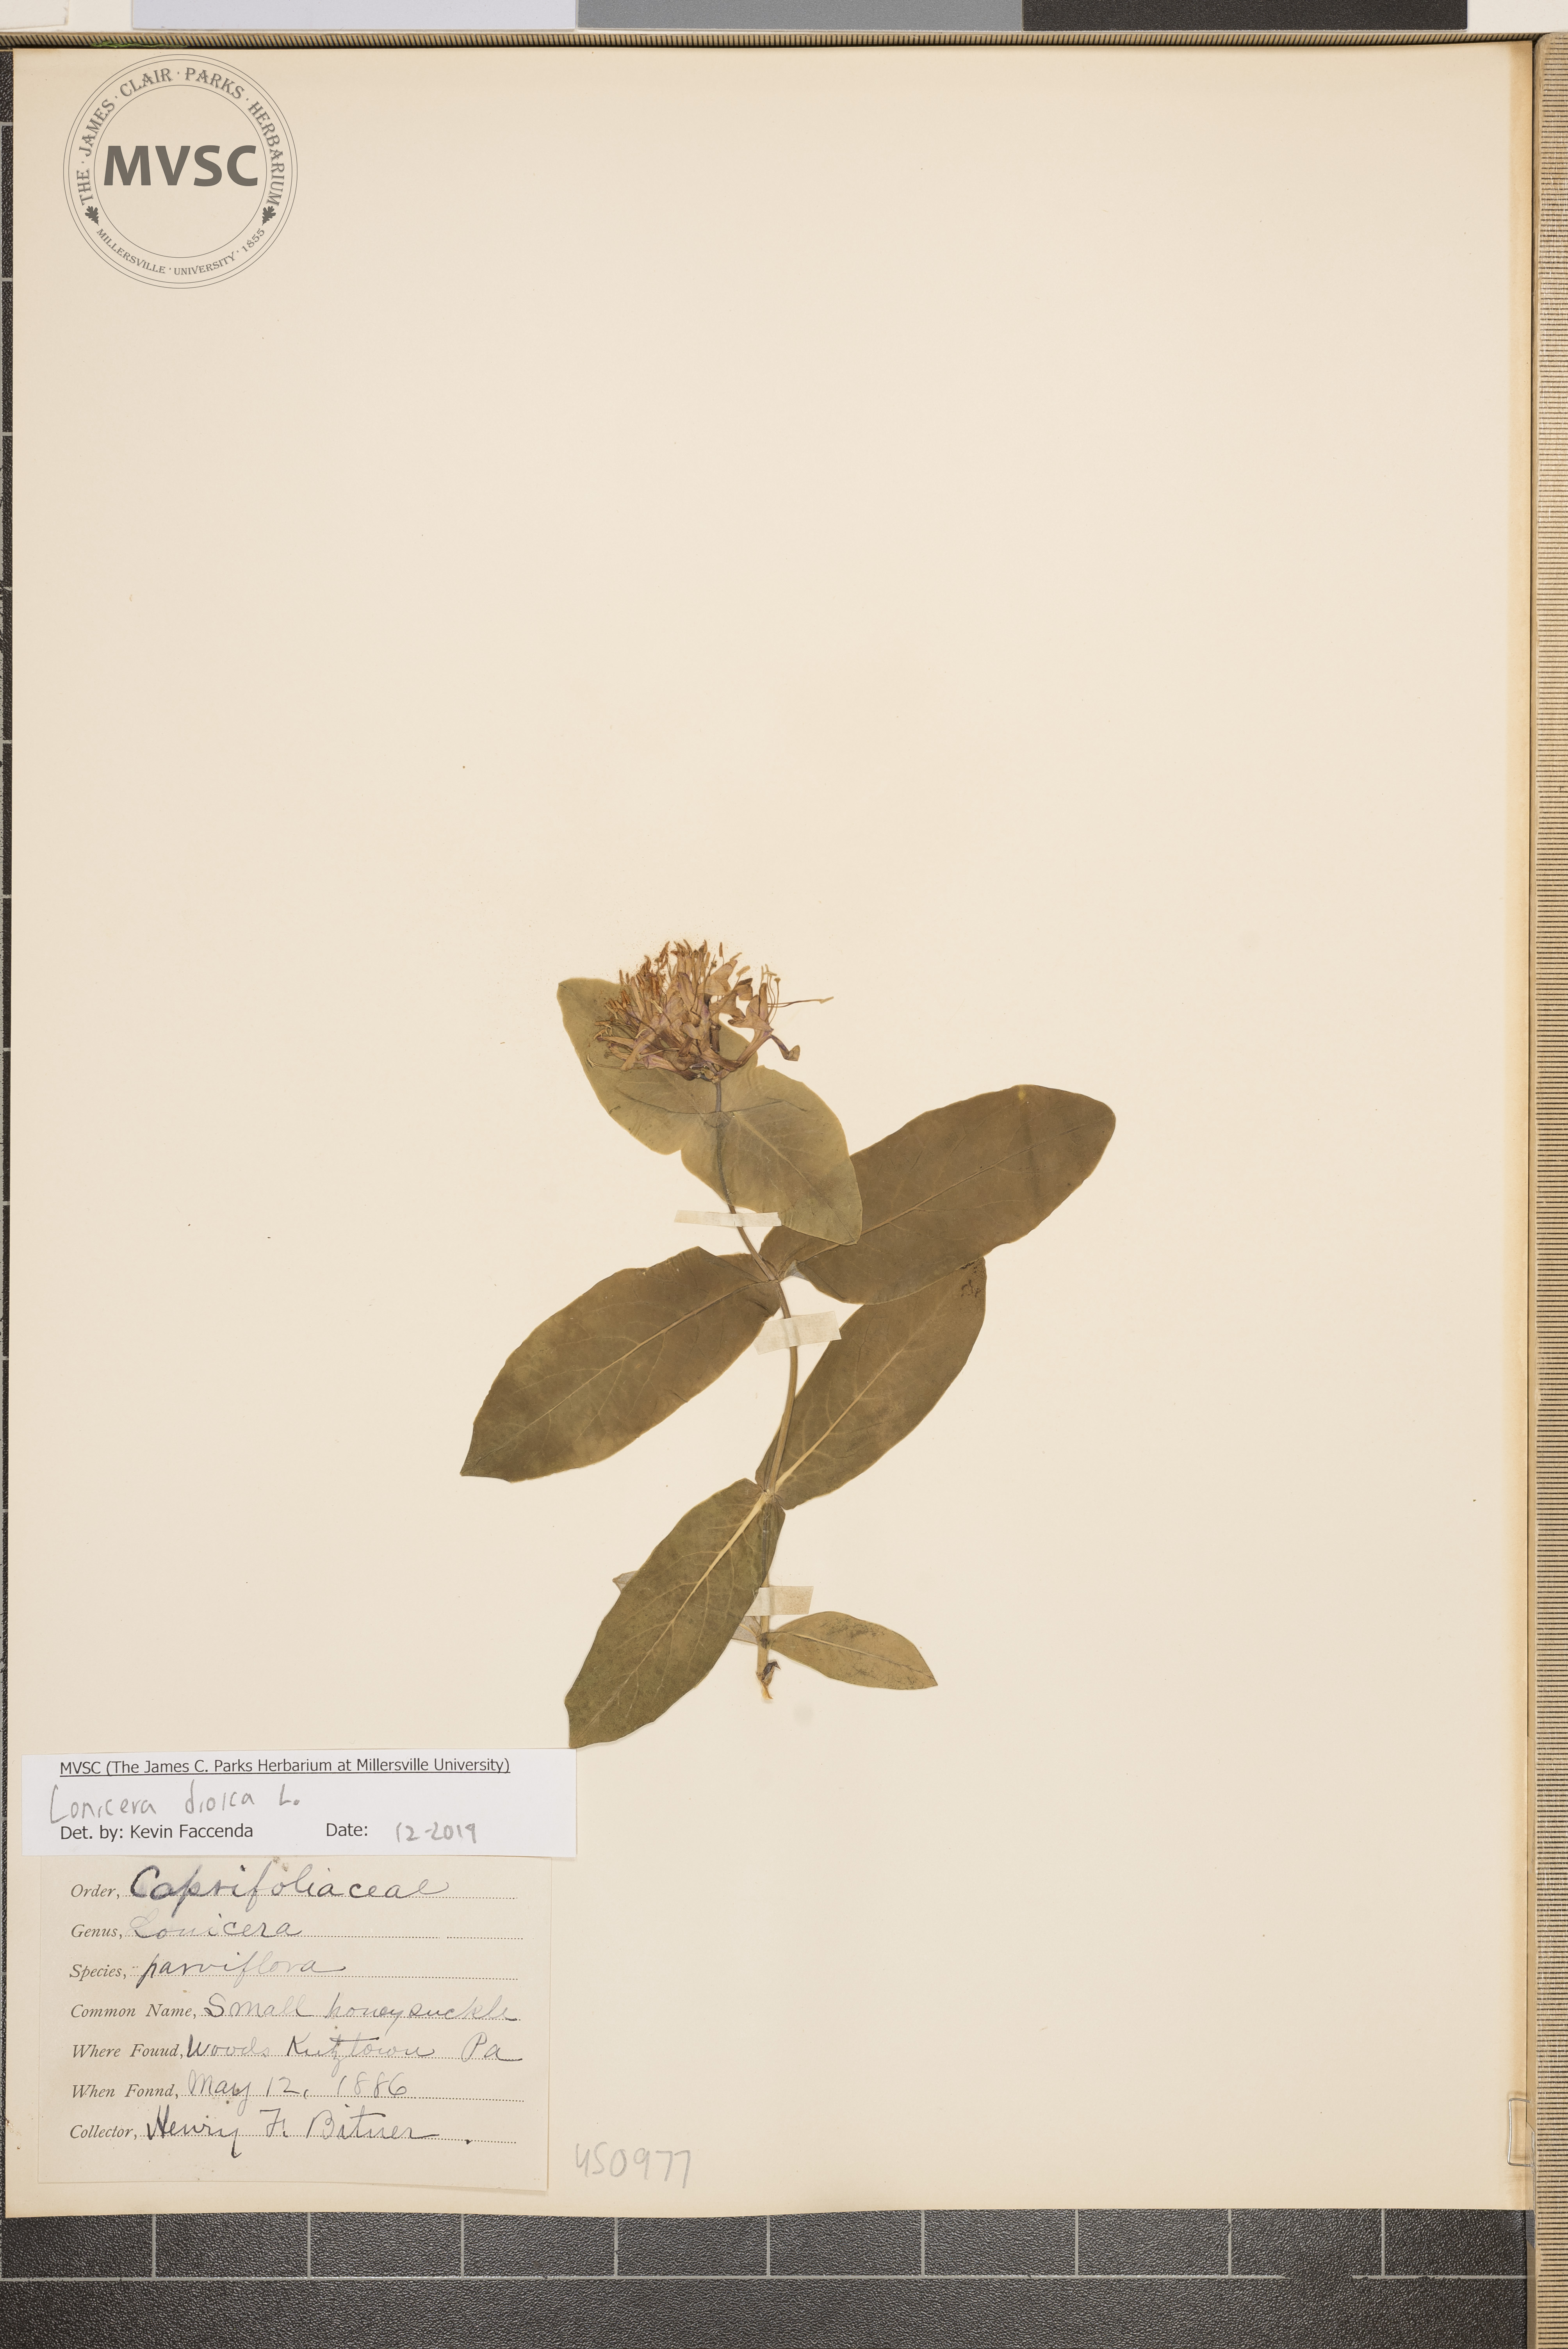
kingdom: Plantae
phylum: Tracheophyta
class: Magnoliopsida
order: Dipsacales
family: Caprifoliaceae
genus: Lonicera
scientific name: Lonicera dioica
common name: Small honeysuckle
